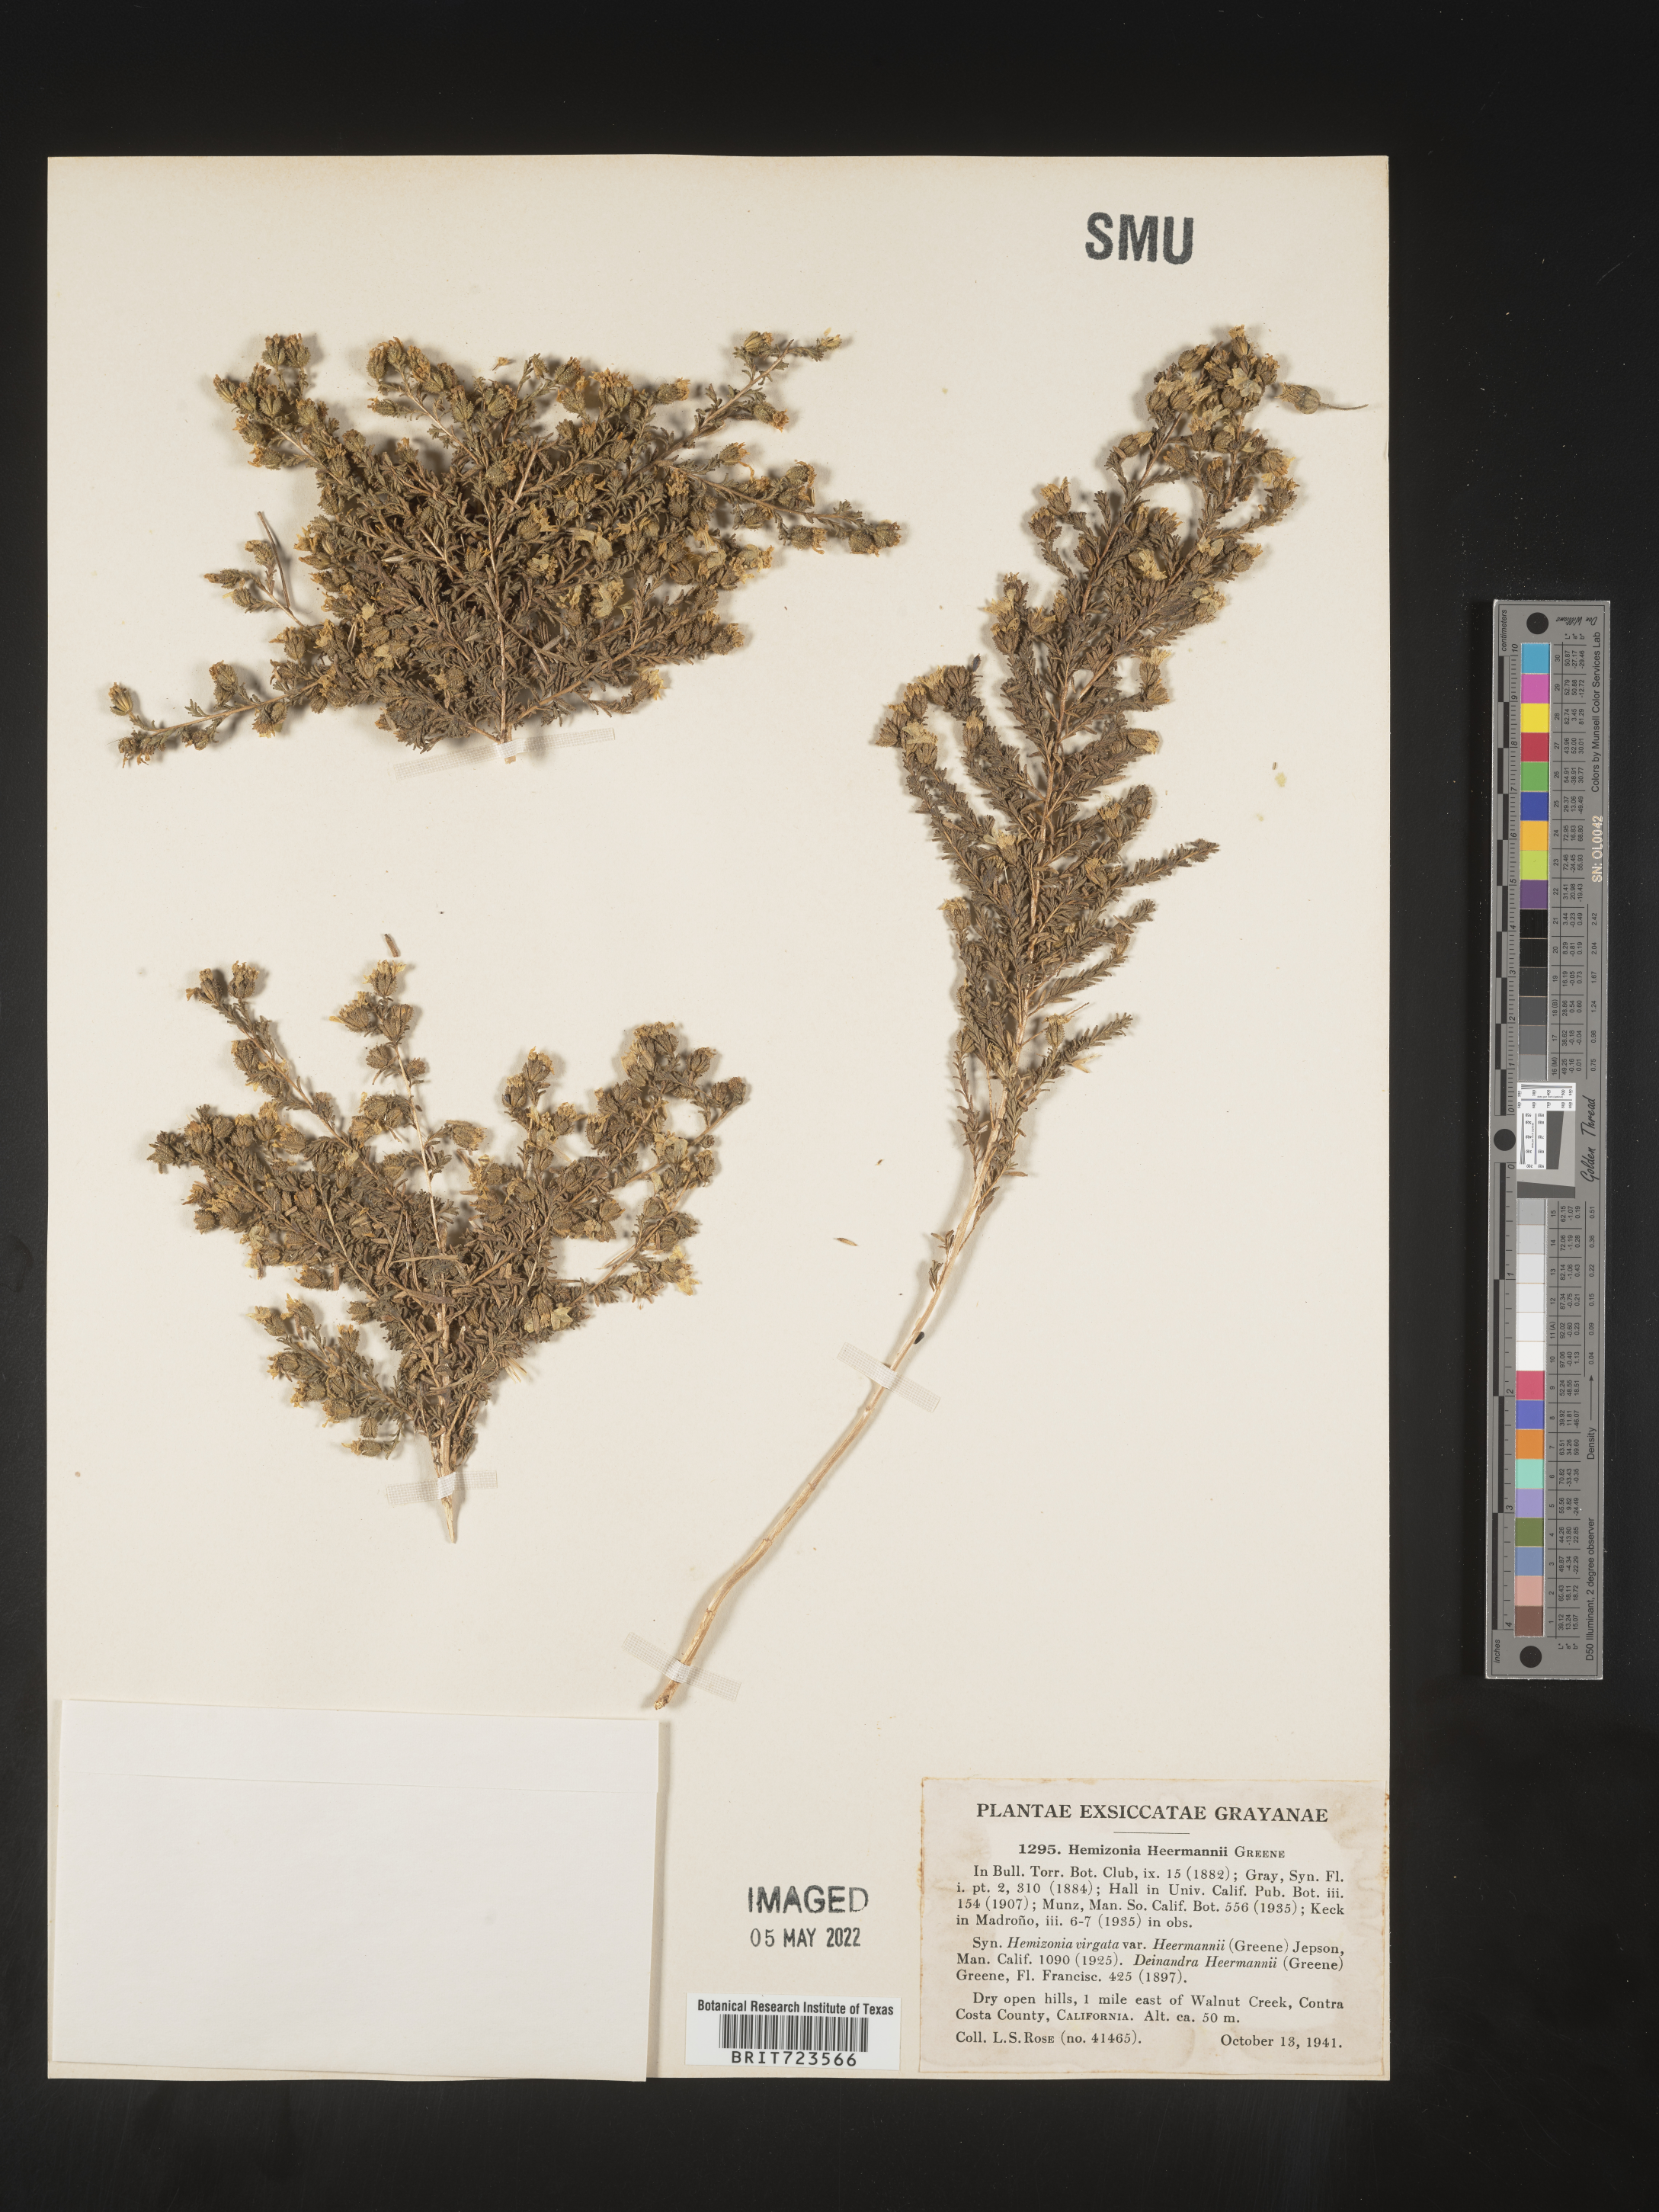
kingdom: Plantae
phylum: Tracheophyta
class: Magnoliopsida
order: Asterales
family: Asteraceae
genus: Hemizonia
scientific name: Hemizonia
